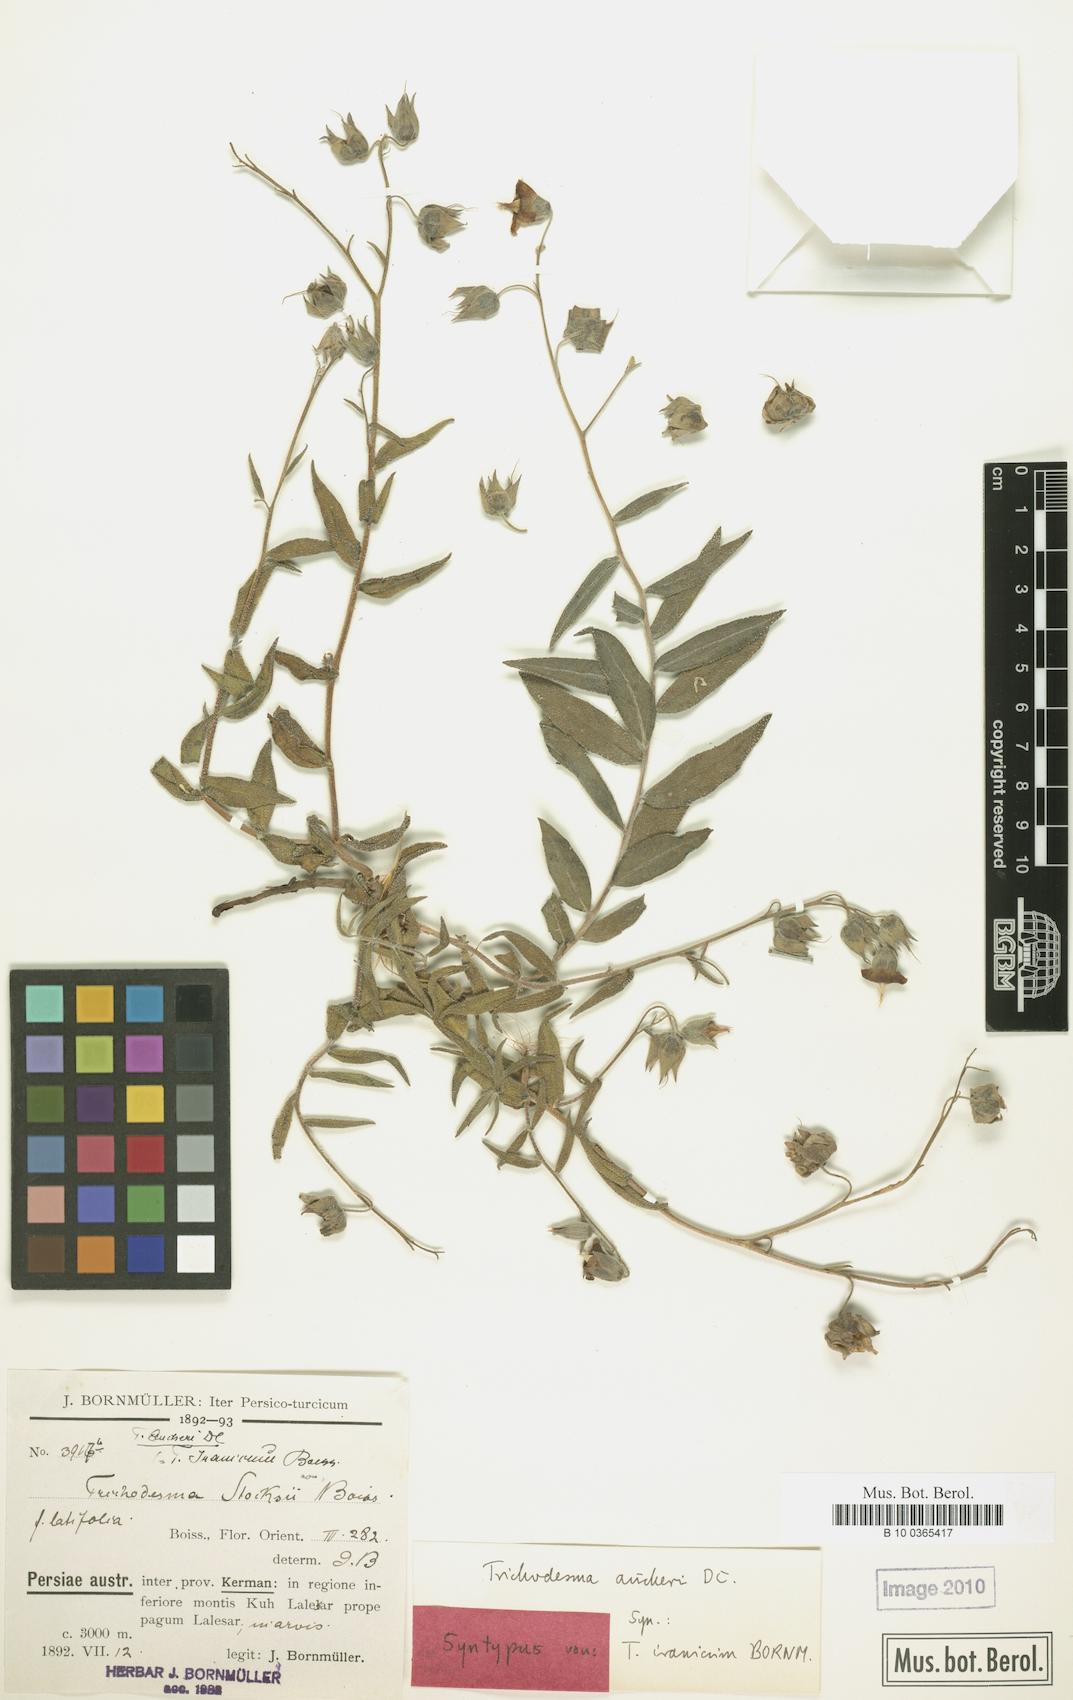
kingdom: Plantae
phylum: Tracheophyta
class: Magnoliopsida
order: Boraginales
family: Boraginaceae
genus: Trichodesma
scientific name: Trichodesma aucheri
